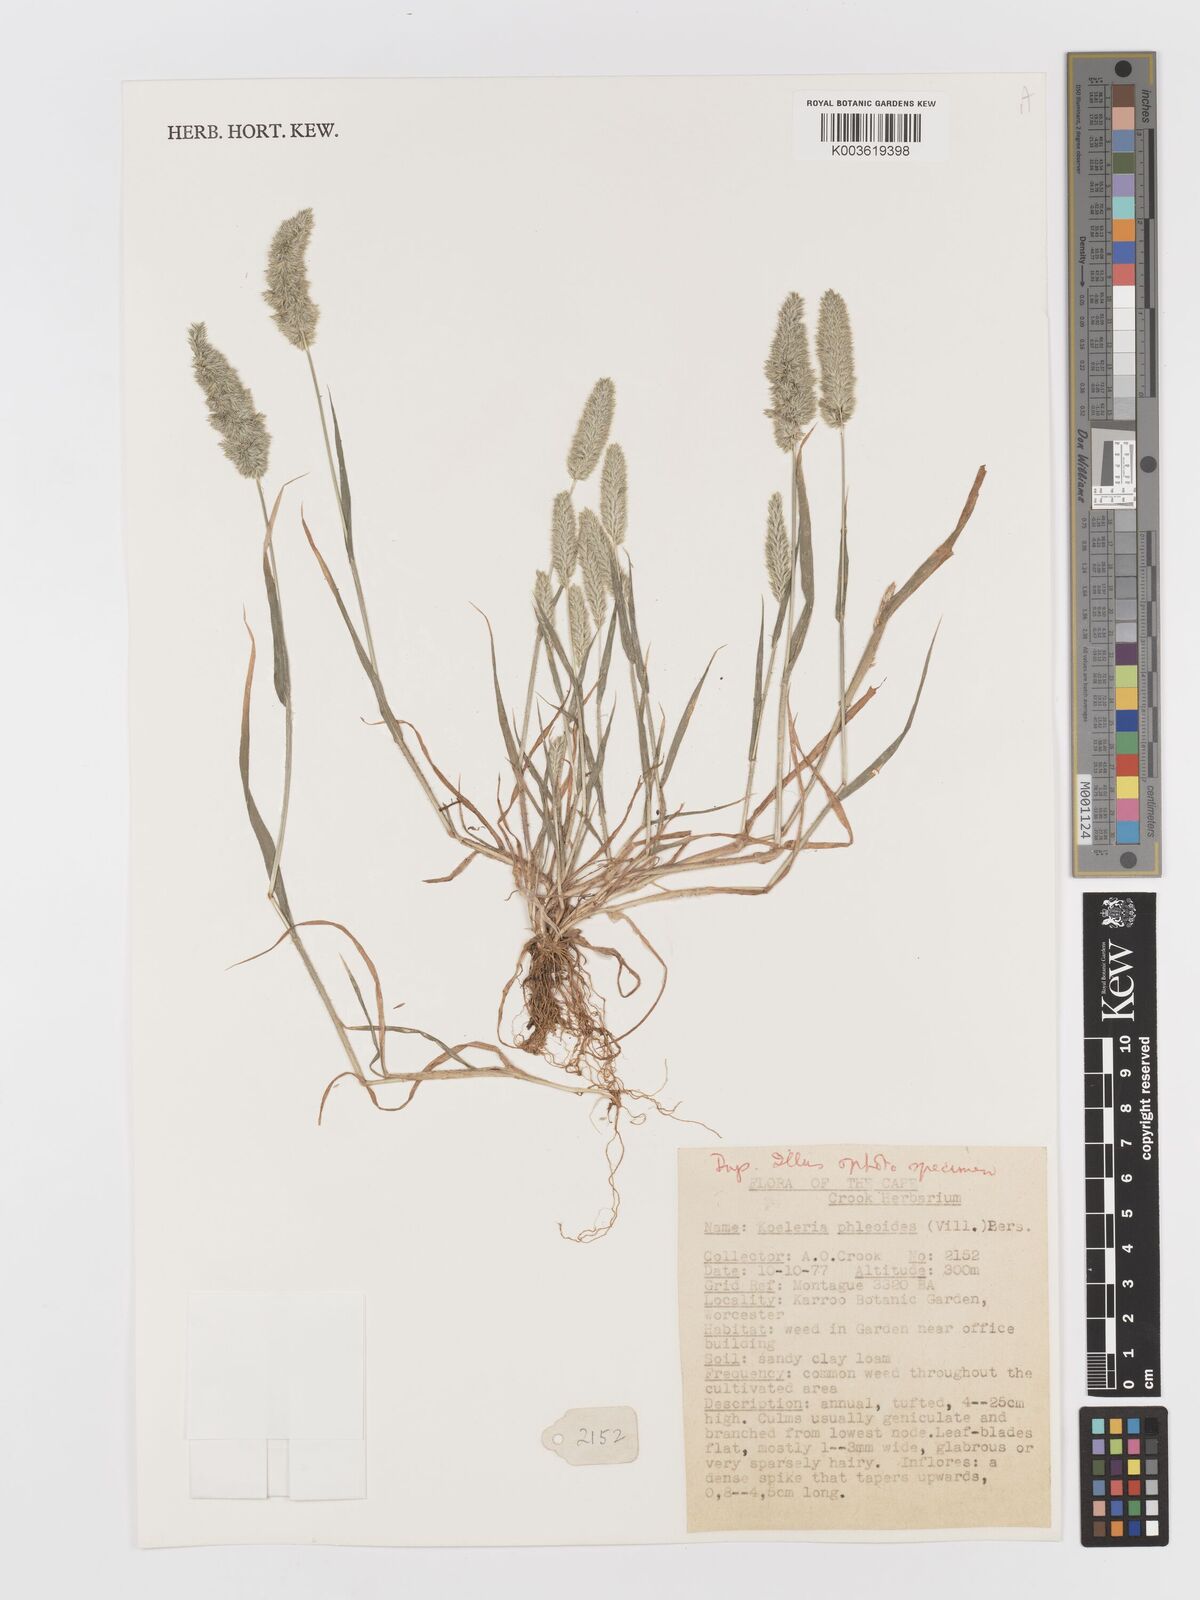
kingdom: Plantae
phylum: Tracheophyta
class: Liliopsida
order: Poales
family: Poaceae
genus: Rostraria
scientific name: Rostraria cristata
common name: Mediterranean hair-grass
